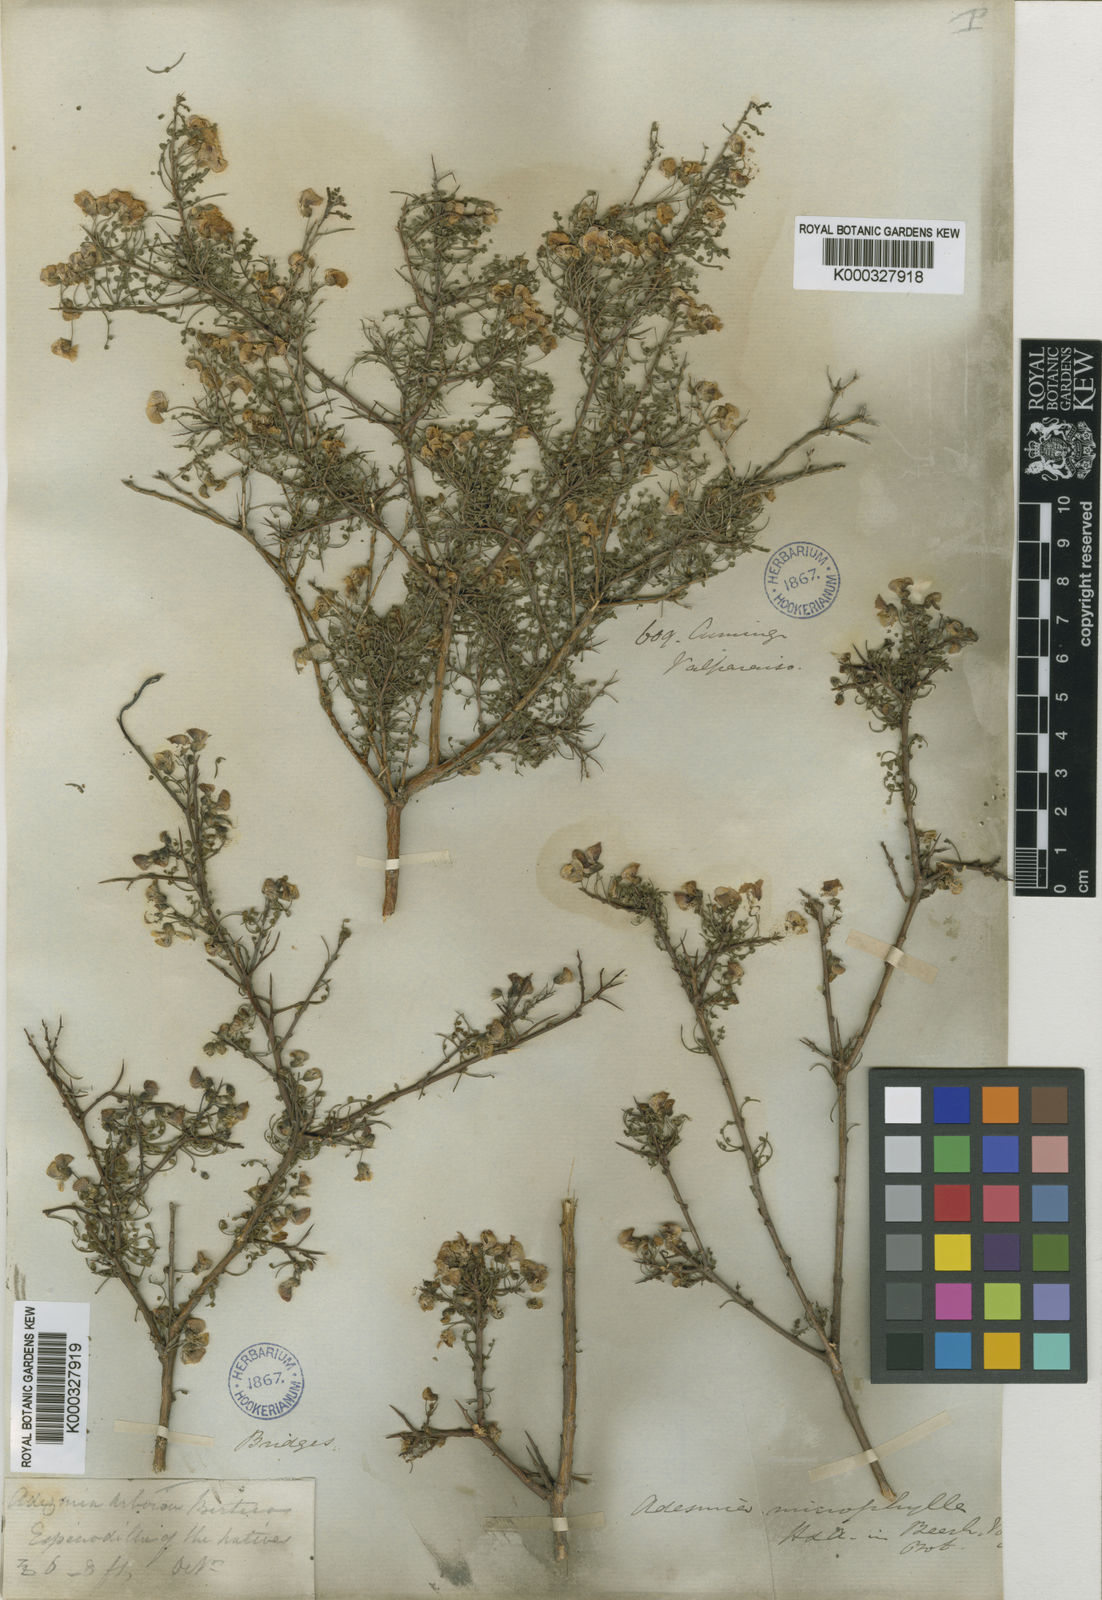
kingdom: Plantae
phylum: Tracheophyta
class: Magnoliopsida
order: Fabales
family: Fabaceae
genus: Adesmia
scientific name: Adesmia microphylla
